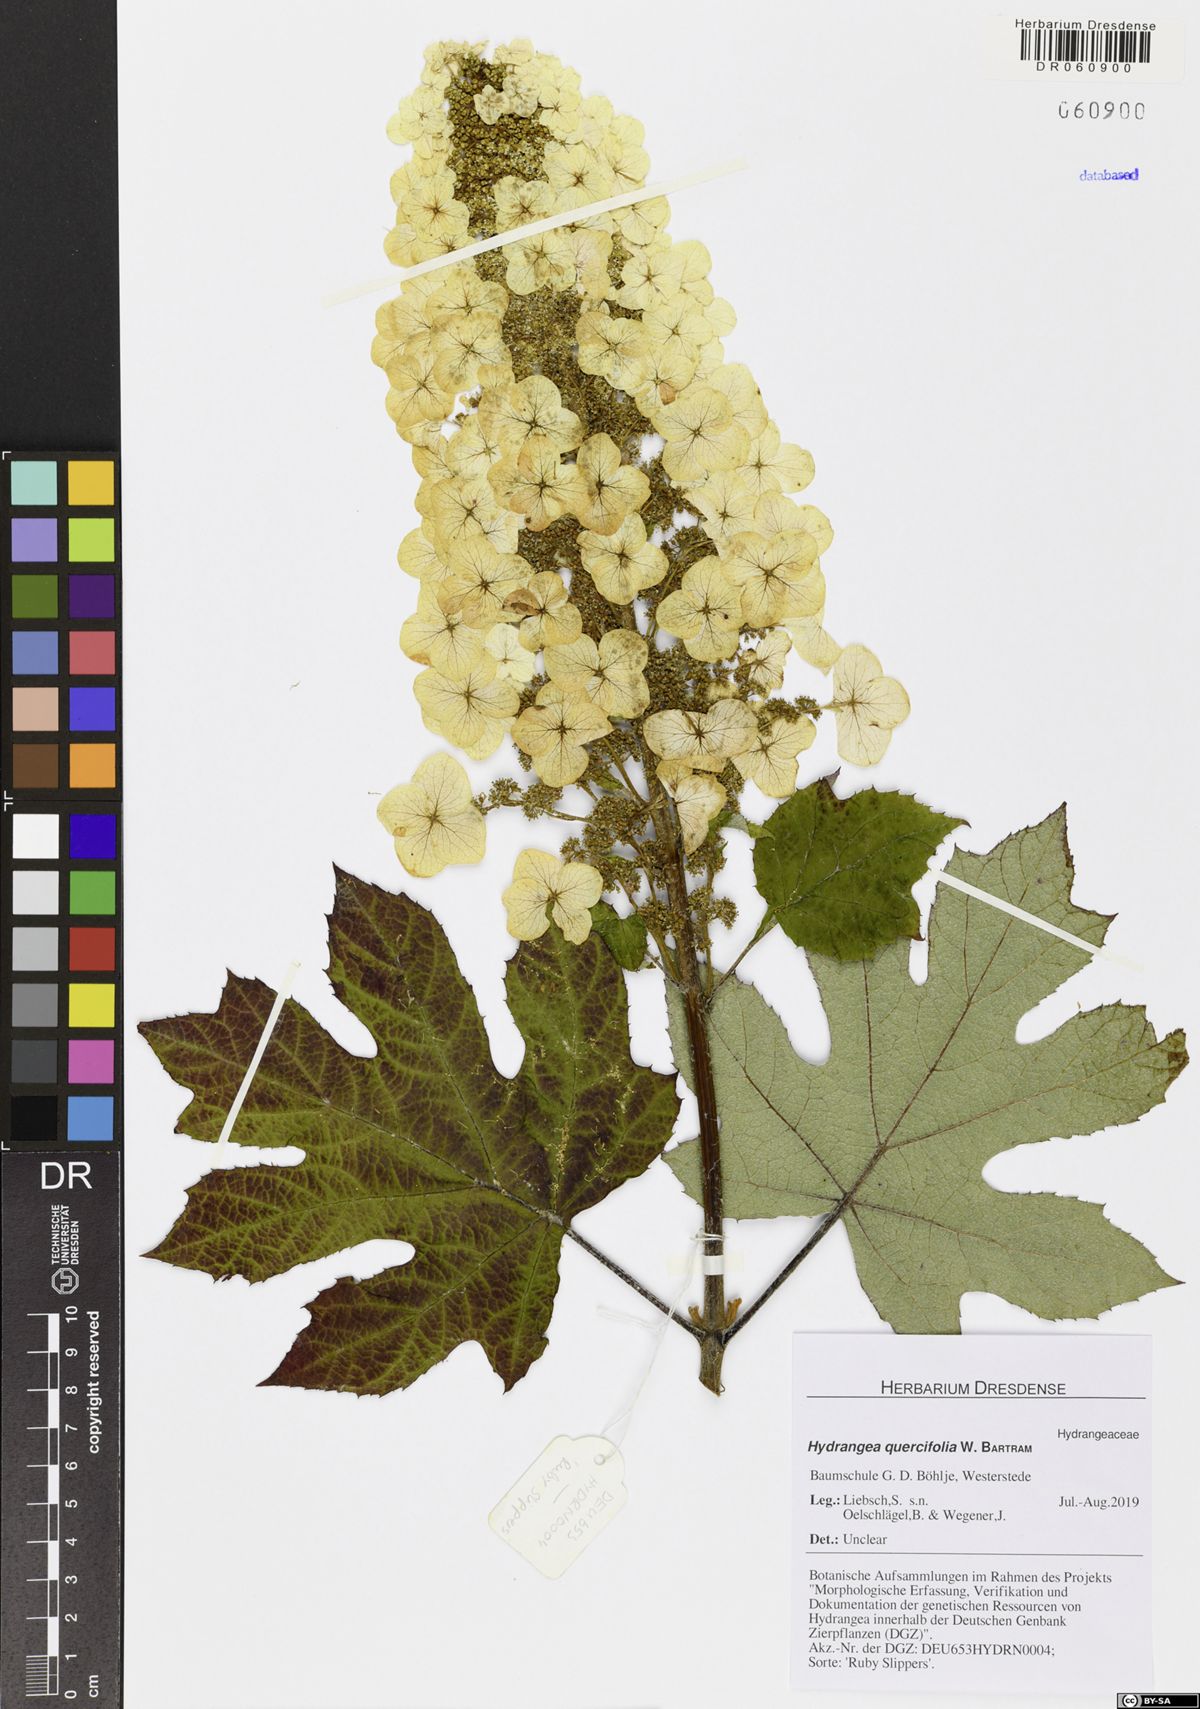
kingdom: Plantae
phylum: Tracheophyta
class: Magnoliopsida
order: Cornales
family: Hydrangeaceae
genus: Hydrangea
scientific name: Hydrangea quercifolia
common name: Oak-leaf hydrangea
